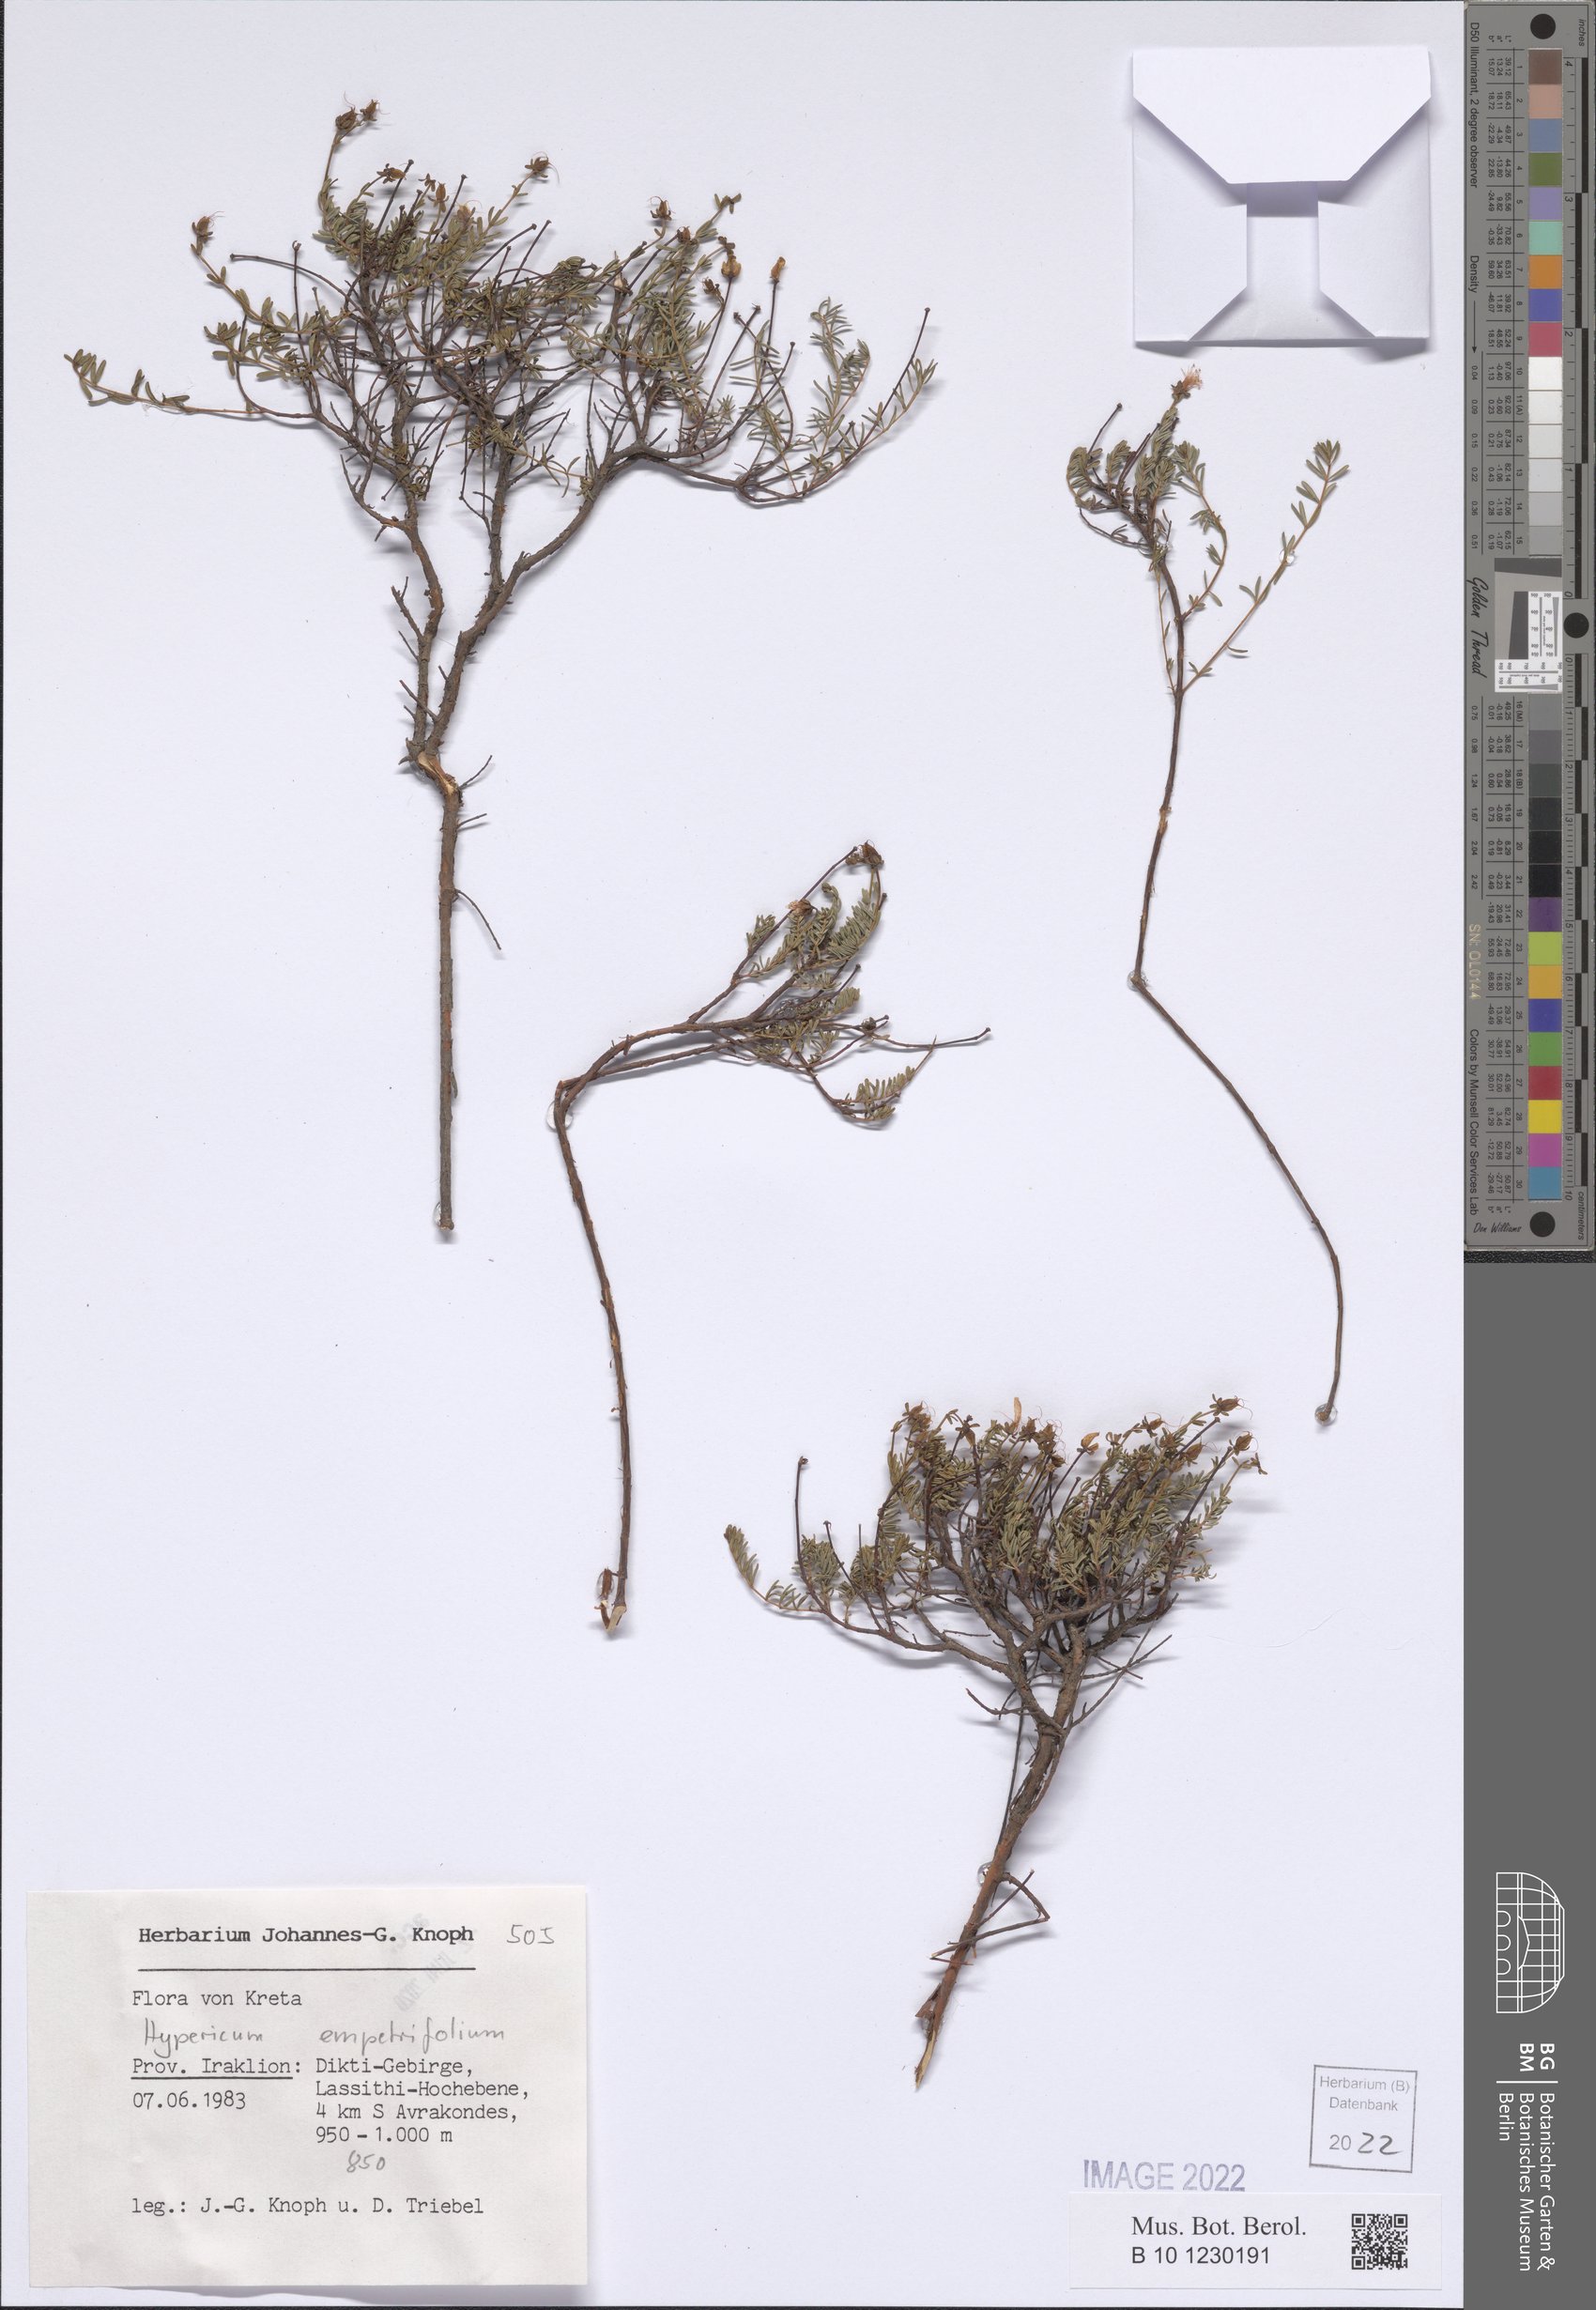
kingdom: Plantae
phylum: Tracheophyta
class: Magnoliopsida
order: Malpighiales
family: Hypericaceae
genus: Hypericum
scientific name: Hypericum empetrifolium
